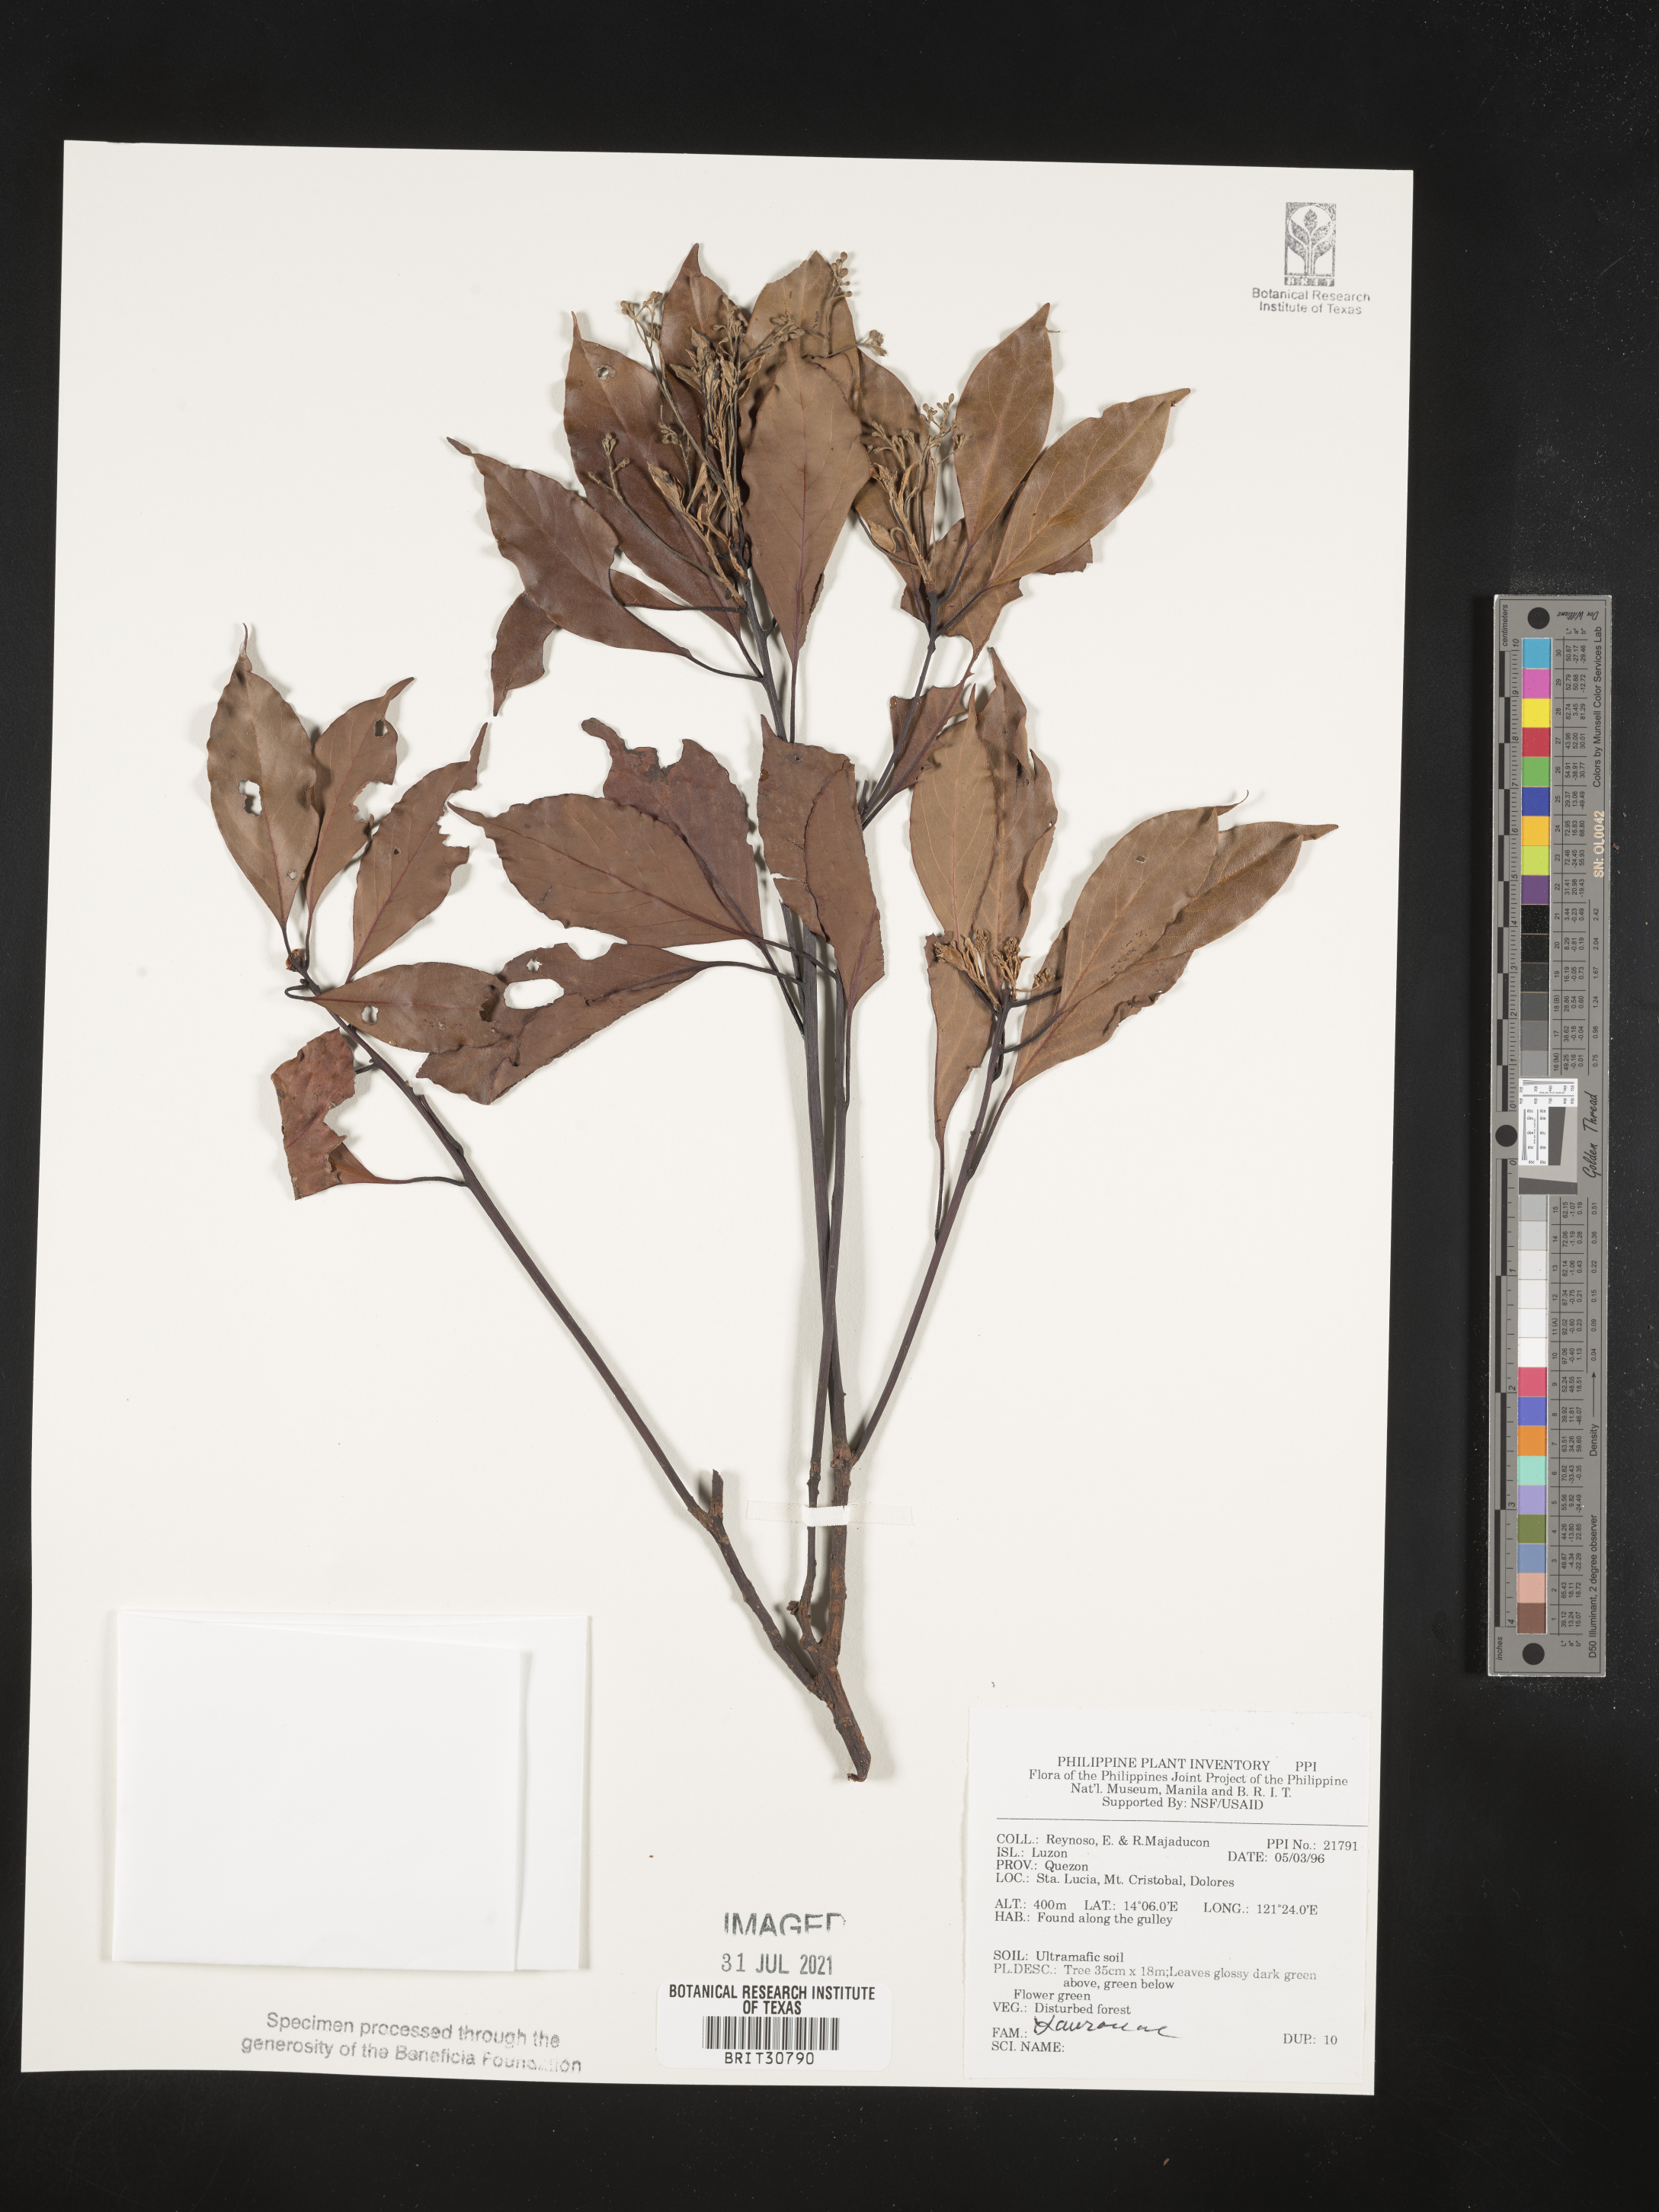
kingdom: Plantae
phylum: Tracheophyta
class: Magnoliopsida
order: Laurales
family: Lauraceae
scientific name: Lauraceae
